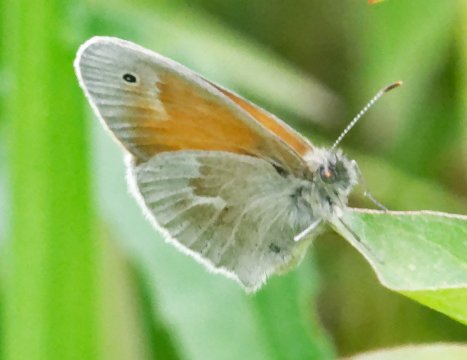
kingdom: Animalia
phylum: Arthropoda
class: Insecta
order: Lepidoptera
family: Nymphalidae
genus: Coenonympha
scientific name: Coenonympha tullia
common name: Large Heath
